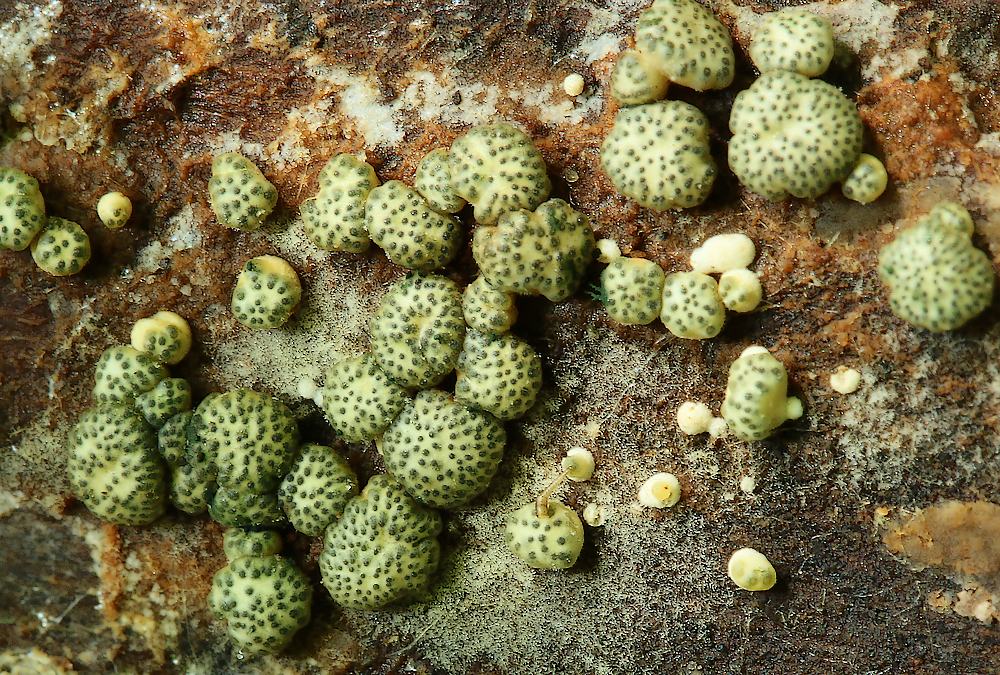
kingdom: Fungi
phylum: Ascomycota
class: Sordariomycetes
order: Hypocreales
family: Hypocreaceae
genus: Trichoderma
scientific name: Trichoderma strictipile
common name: grønprikket kødkerne
